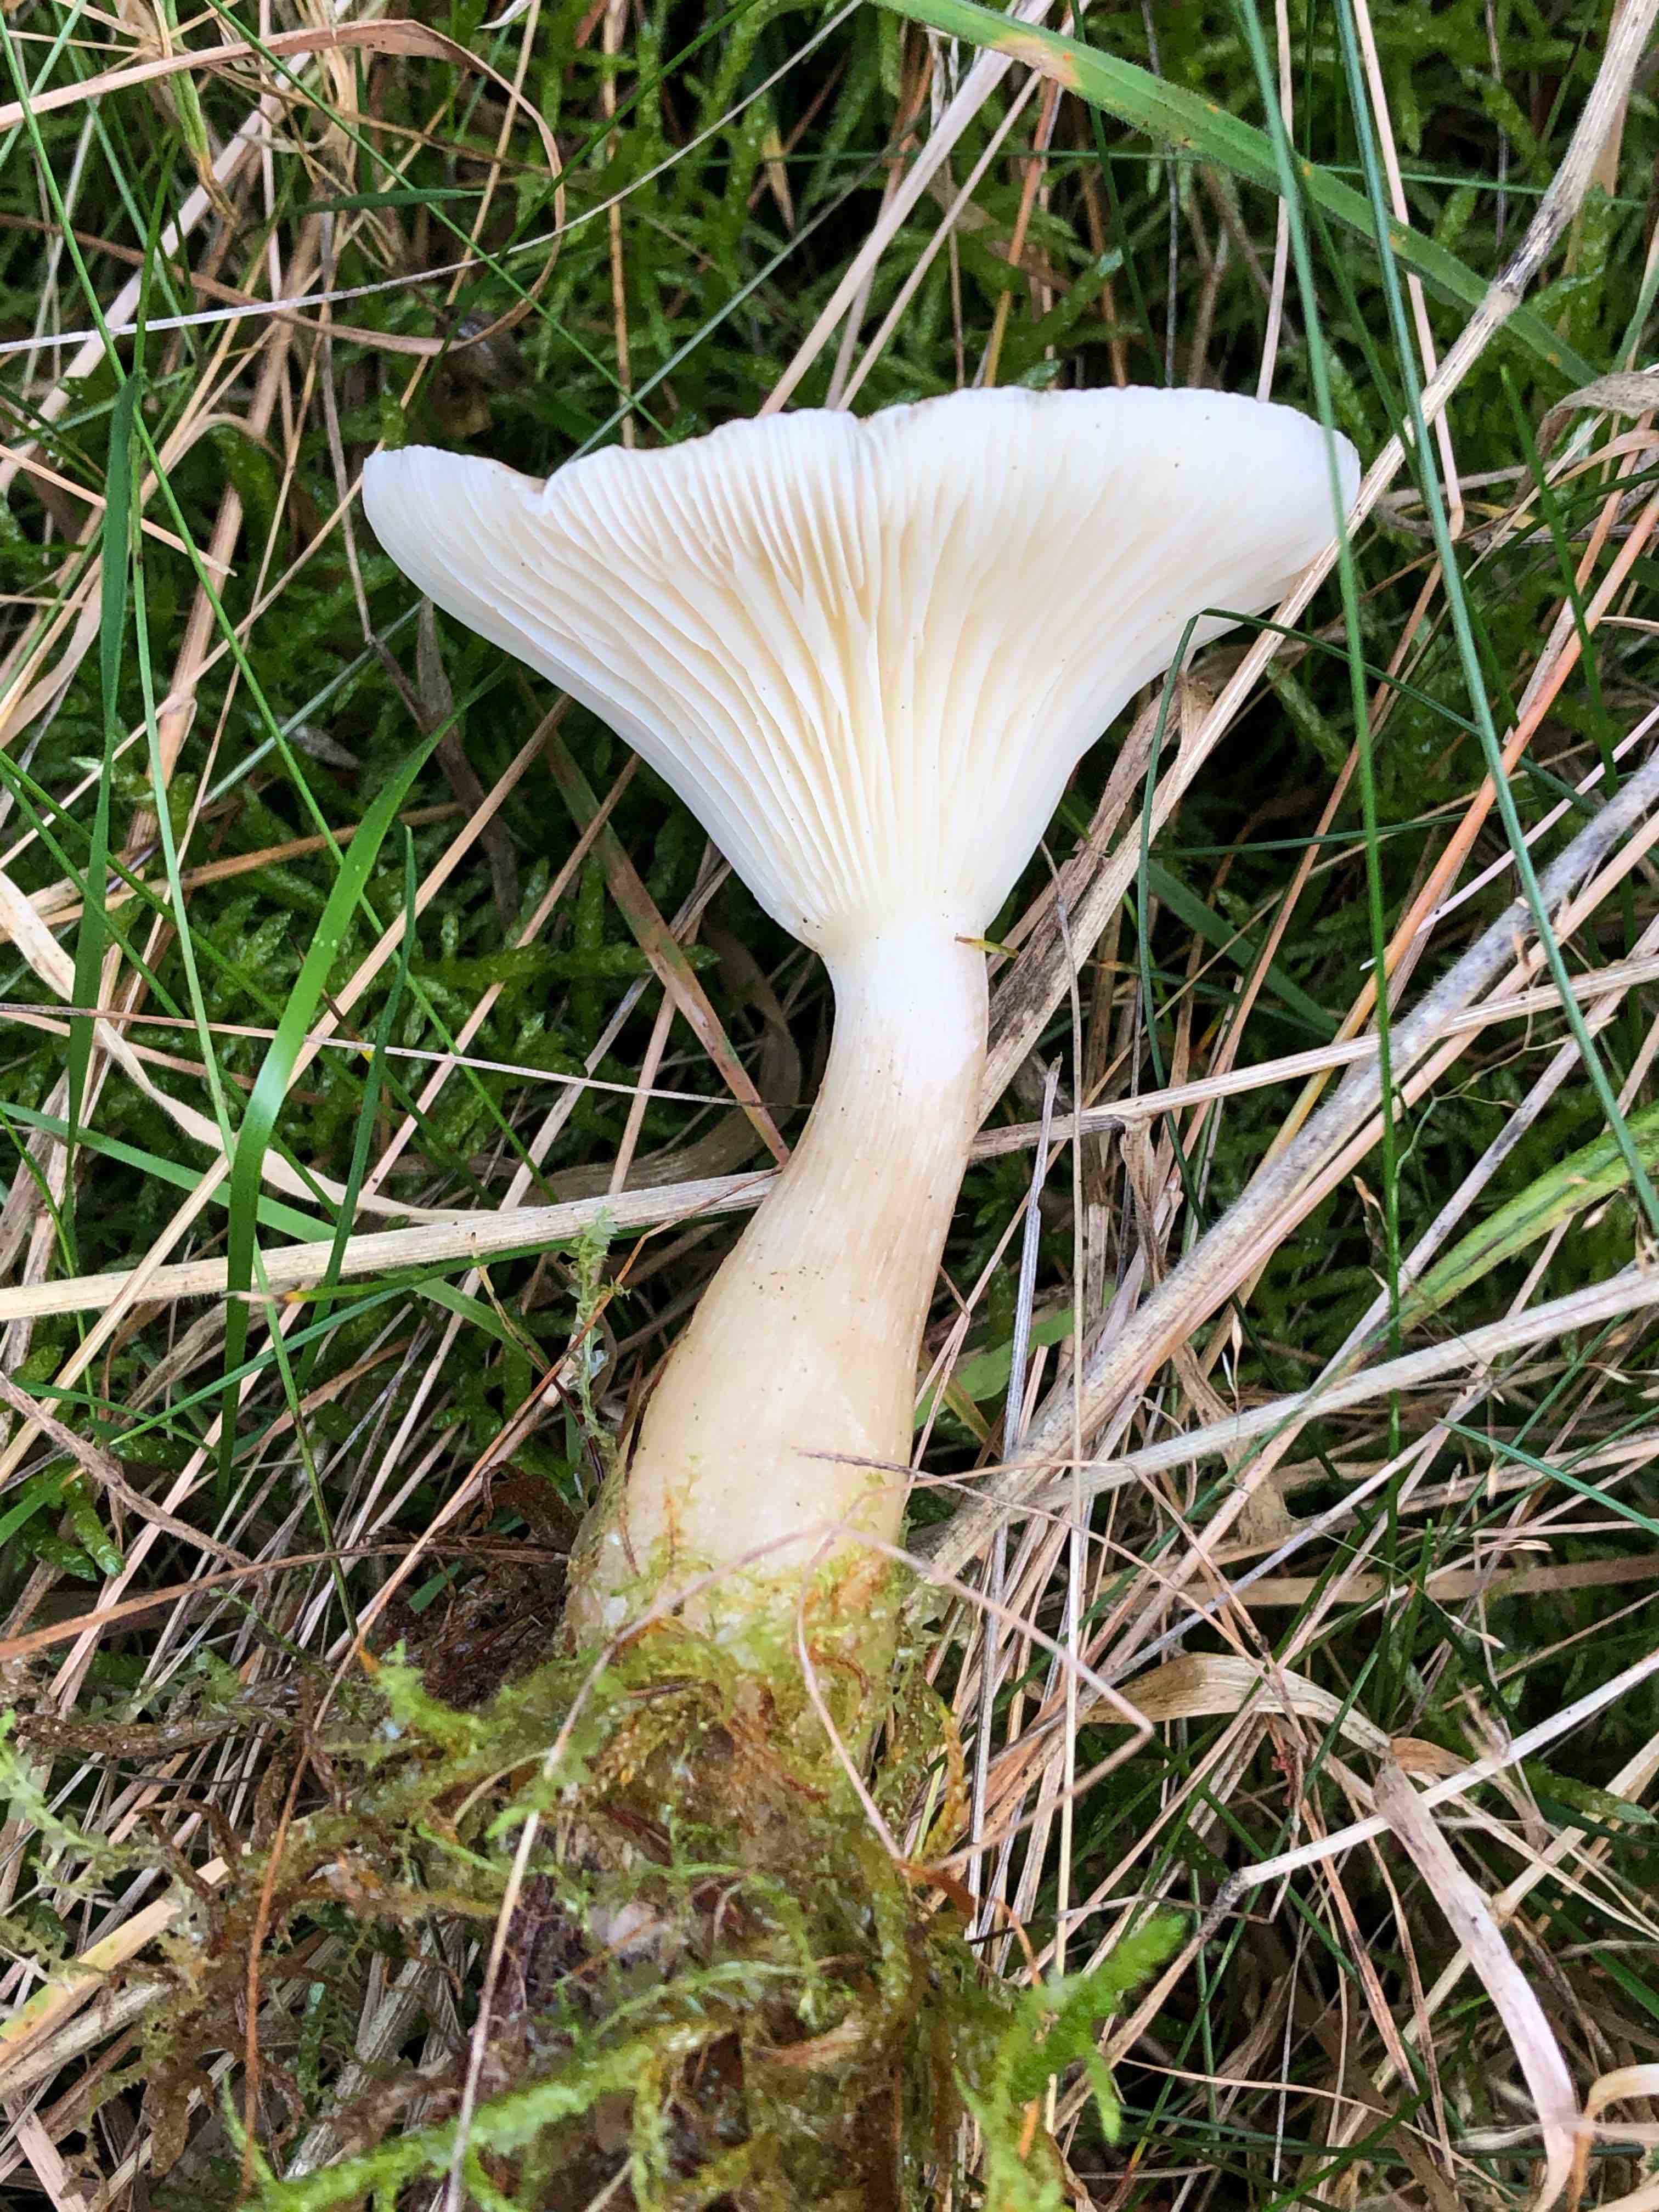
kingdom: Fungi
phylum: Basidiomycota
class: Agaricomycetes
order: Agaricales
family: Hygrophoraceae
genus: Ampulloclitocybe
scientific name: Ampulloclitocybe clavipes
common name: køllefod
